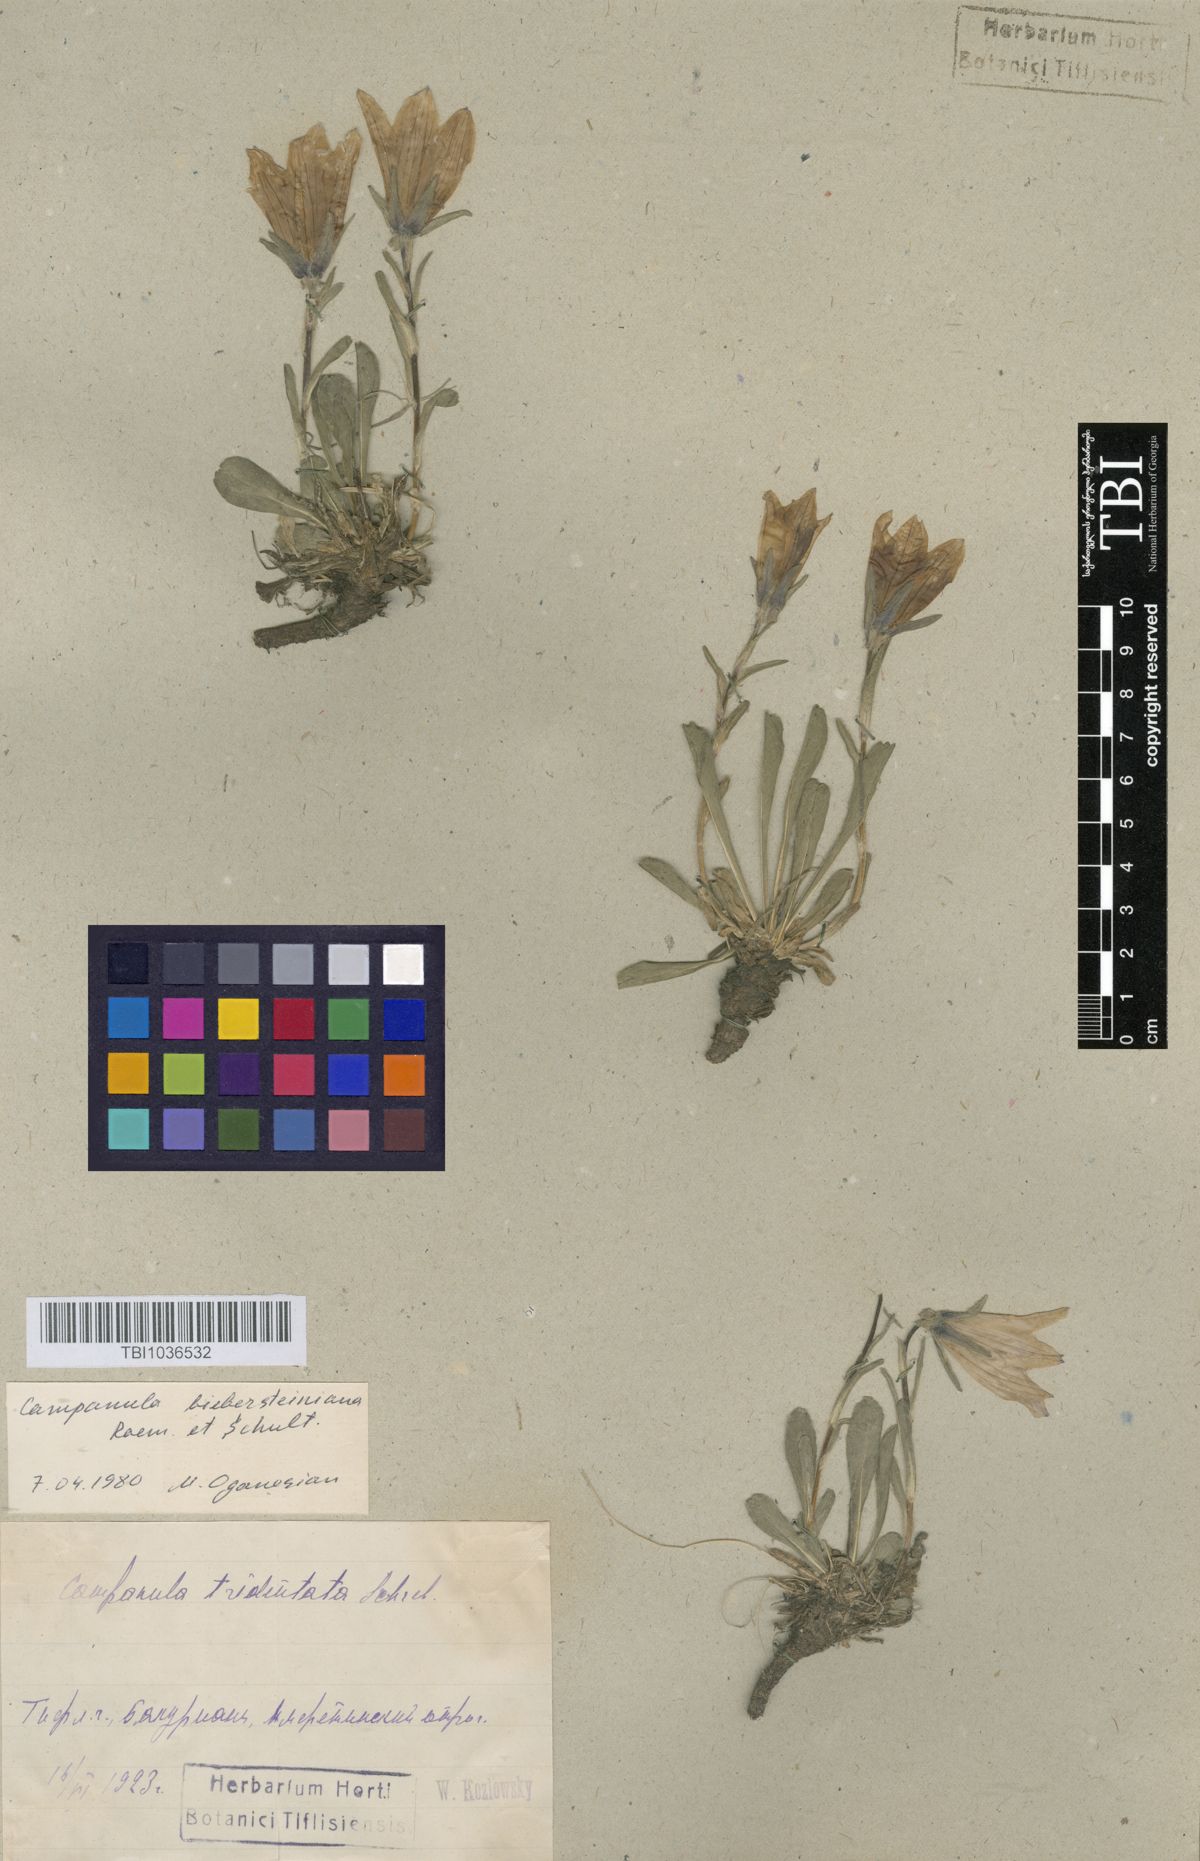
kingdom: Plantae
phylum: Tracheophyta
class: Magnoliopsida
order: Asterales
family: Campanulaceae
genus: Campanula
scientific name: Campanula tridentata
